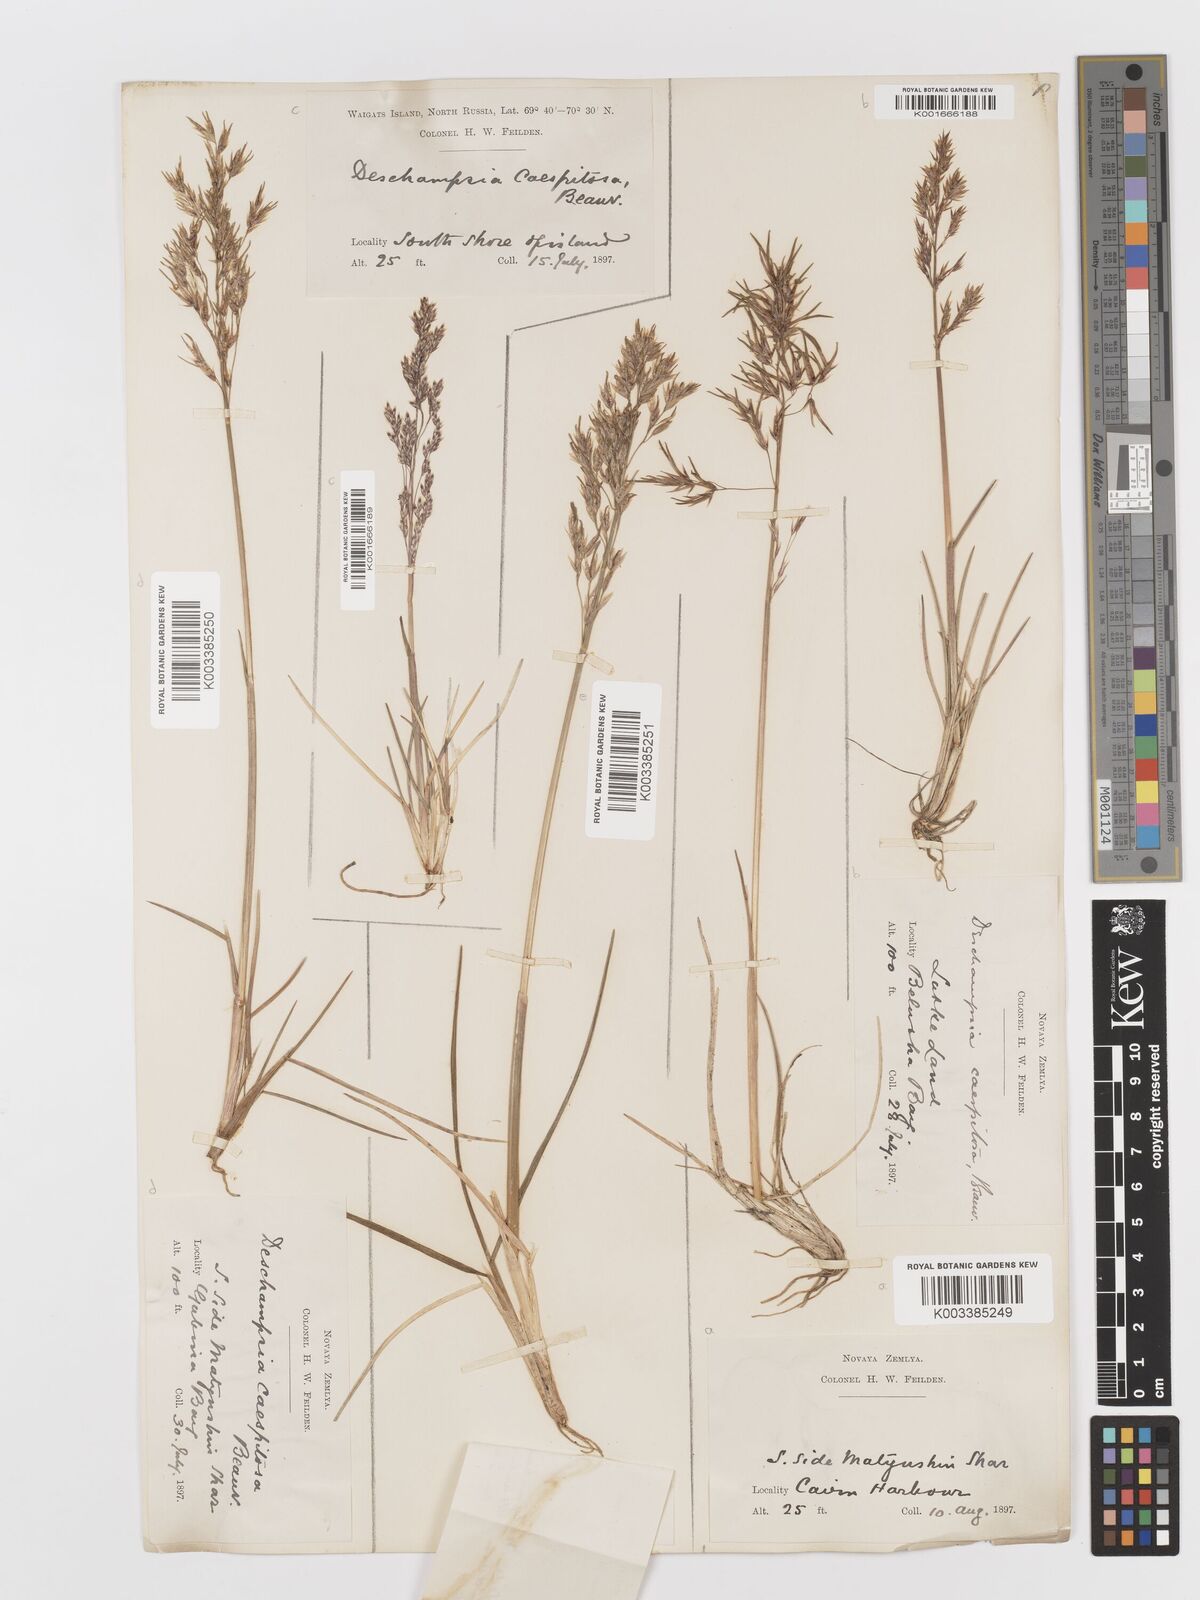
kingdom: Plantae
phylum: Tracheophyta
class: Liliopsida
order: Poales
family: Poaceae
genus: Deschampsia
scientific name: Deschampsia cespitosa
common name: Tufted hair-grass
